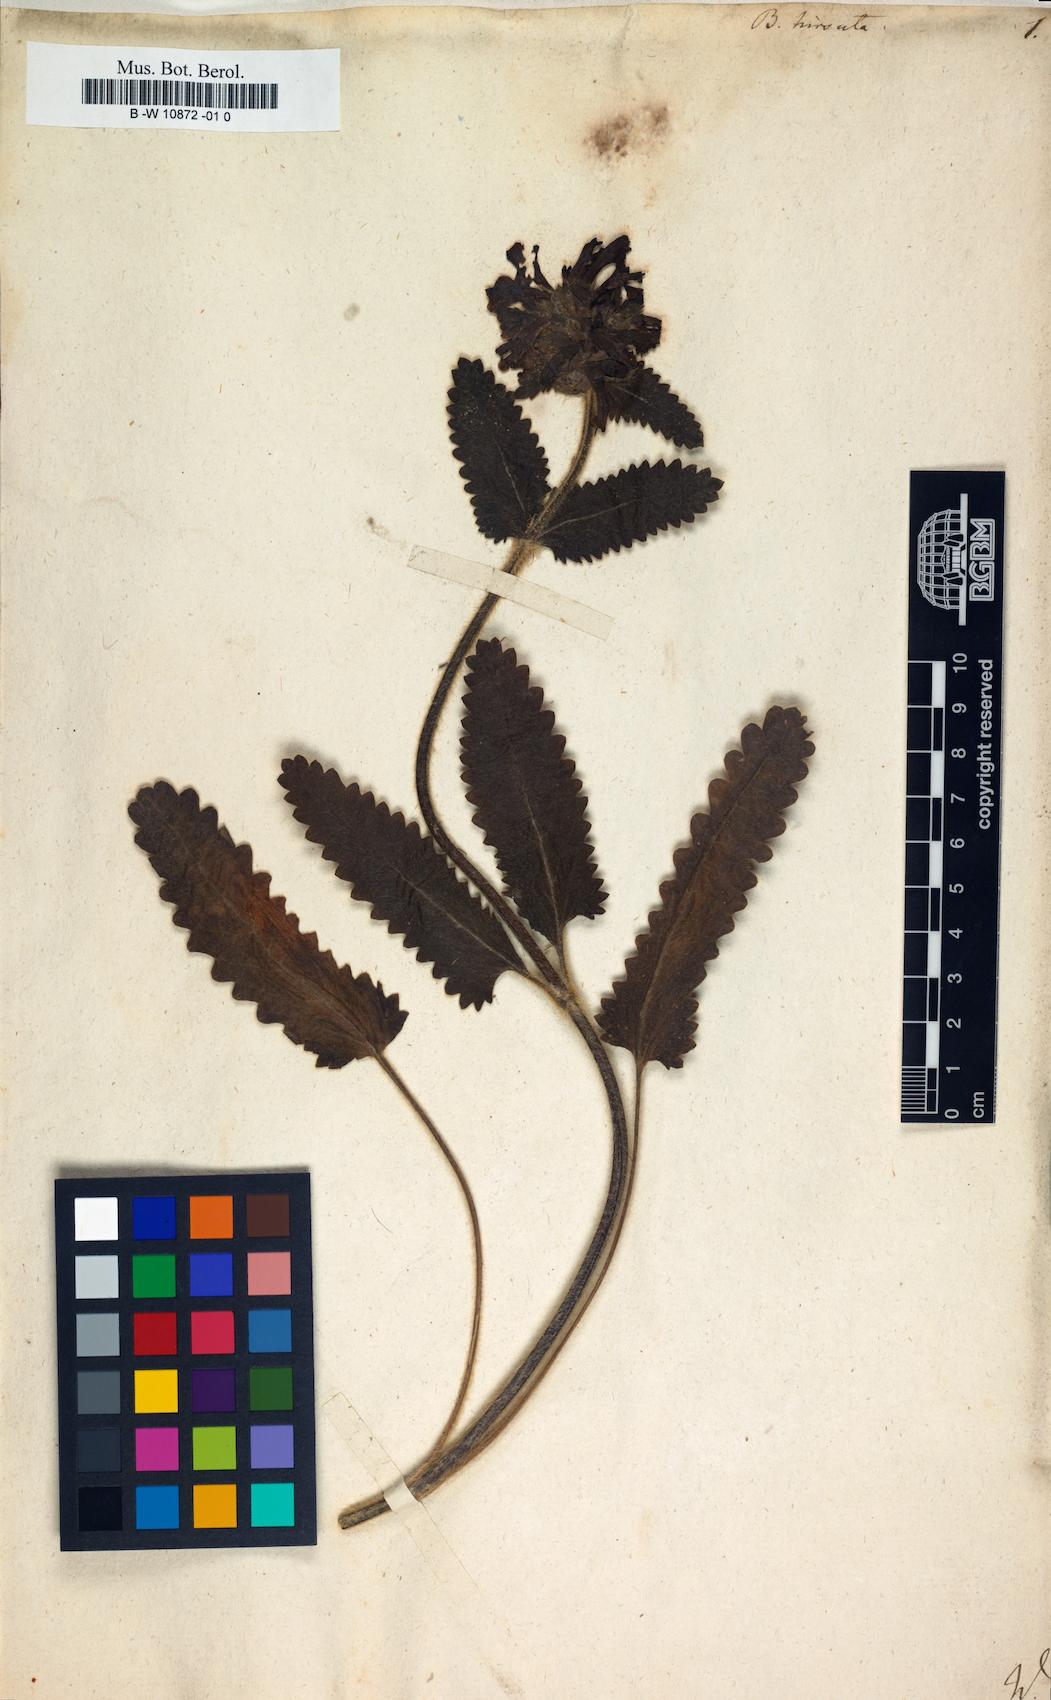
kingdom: Plantae
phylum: Tracheophyta
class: Magnoliopsida
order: Lamiales
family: Lamiaceae
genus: Betonica
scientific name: Betonica hirsuta
